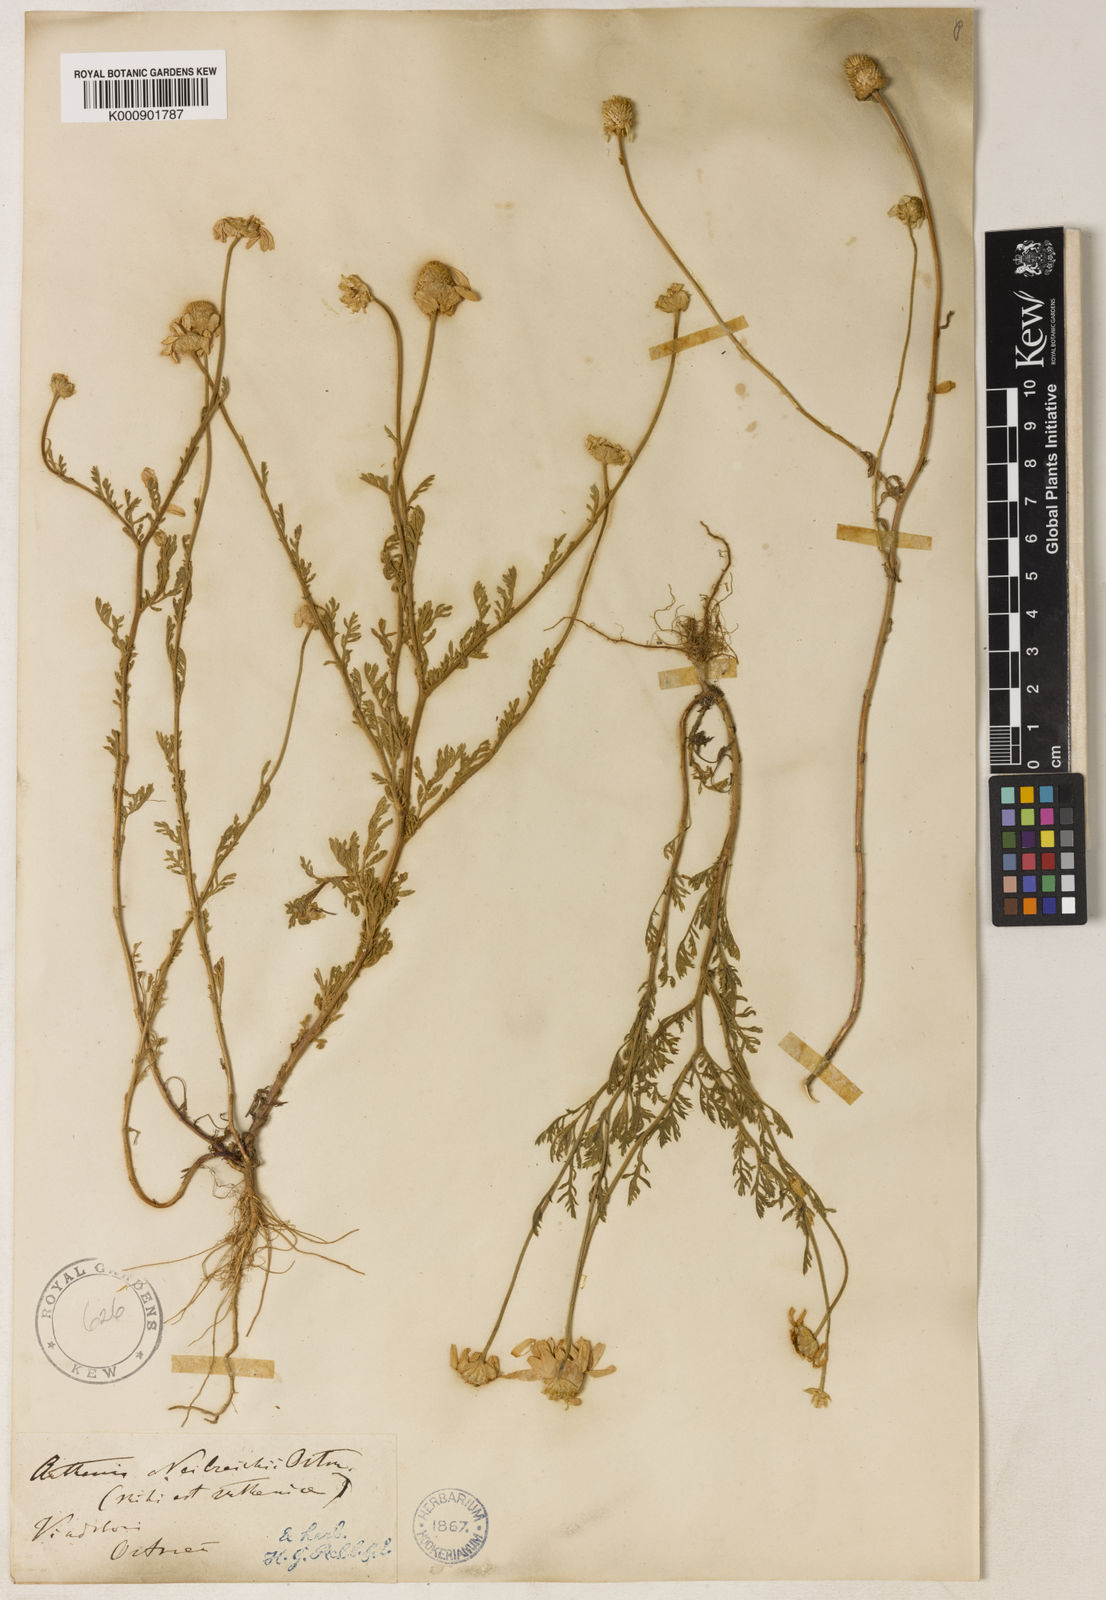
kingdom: Plantae
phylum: Tracheophyta
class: Magnoliopsida
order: Asterales
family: Asteraceae
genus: Anthemis
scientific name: Anthemis ruthenica
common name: Eastern chamomile
